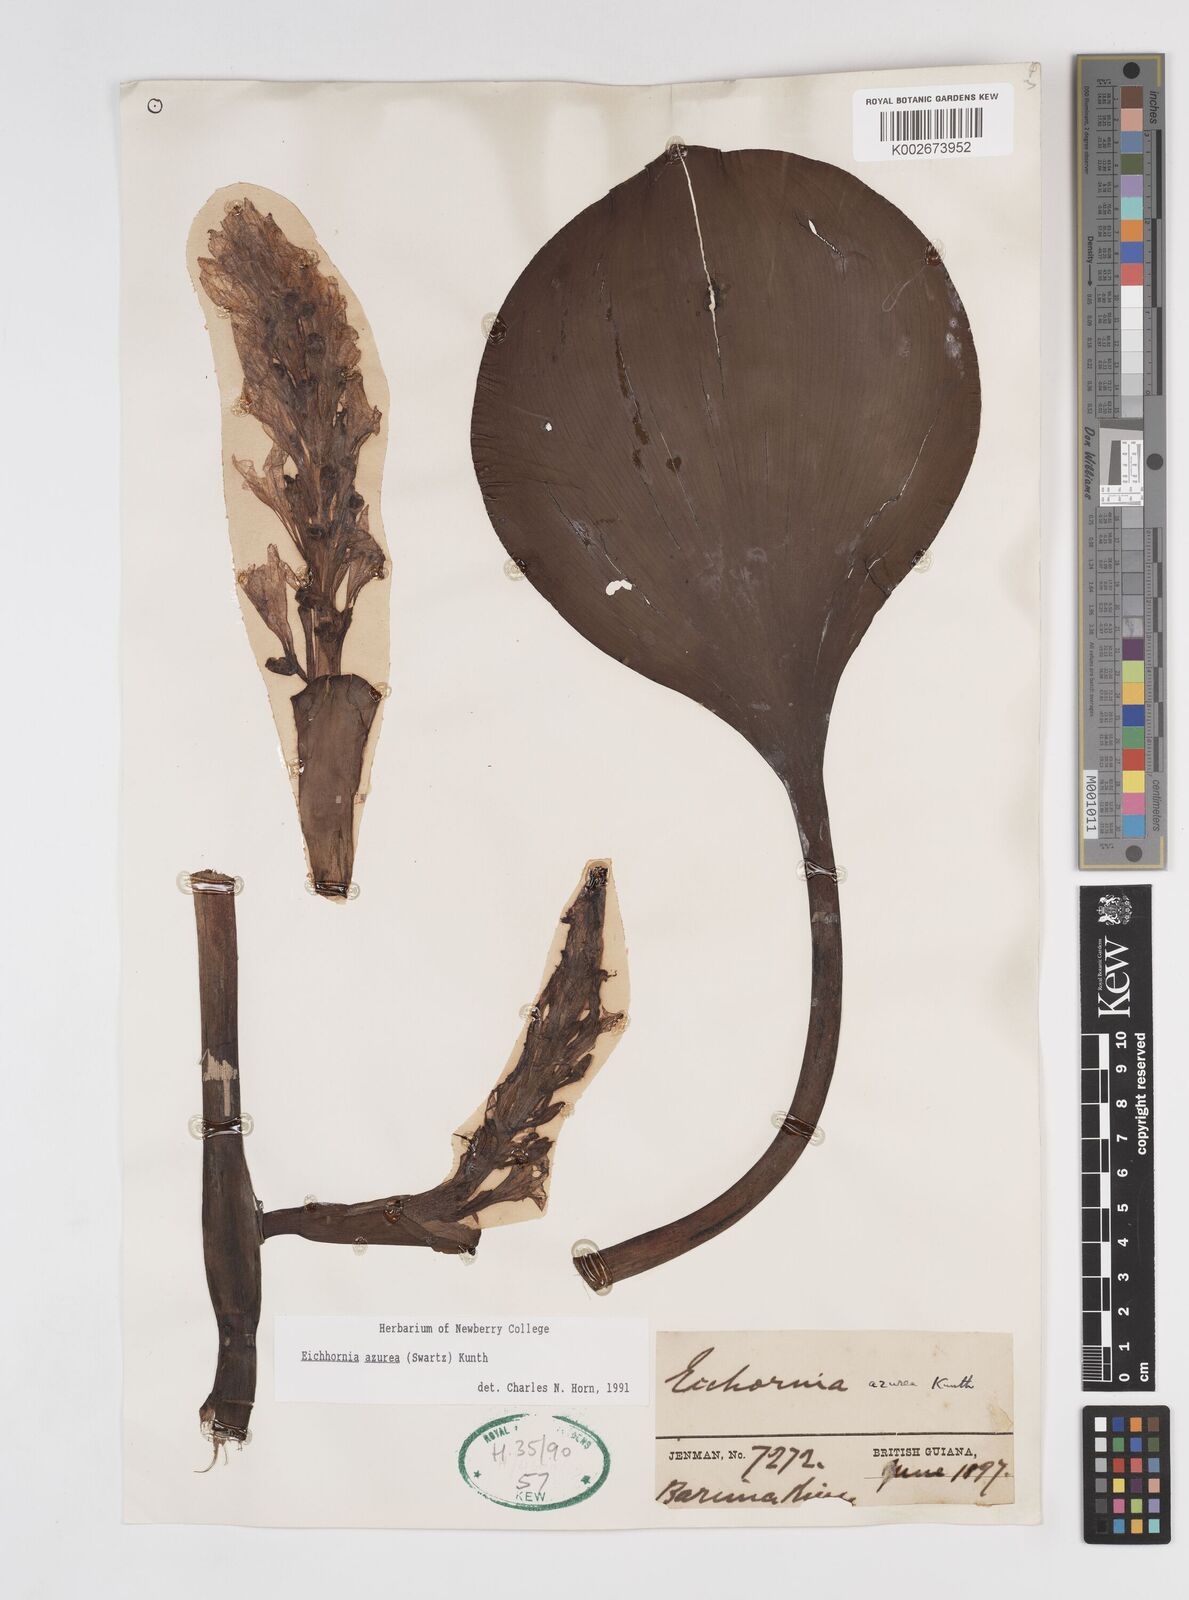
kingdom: Plantae
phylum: Tracheophyta
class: Liliopsida
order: Commelinales
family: Pontederiaceae
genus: Pontederia
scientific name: Pontederia azurea
